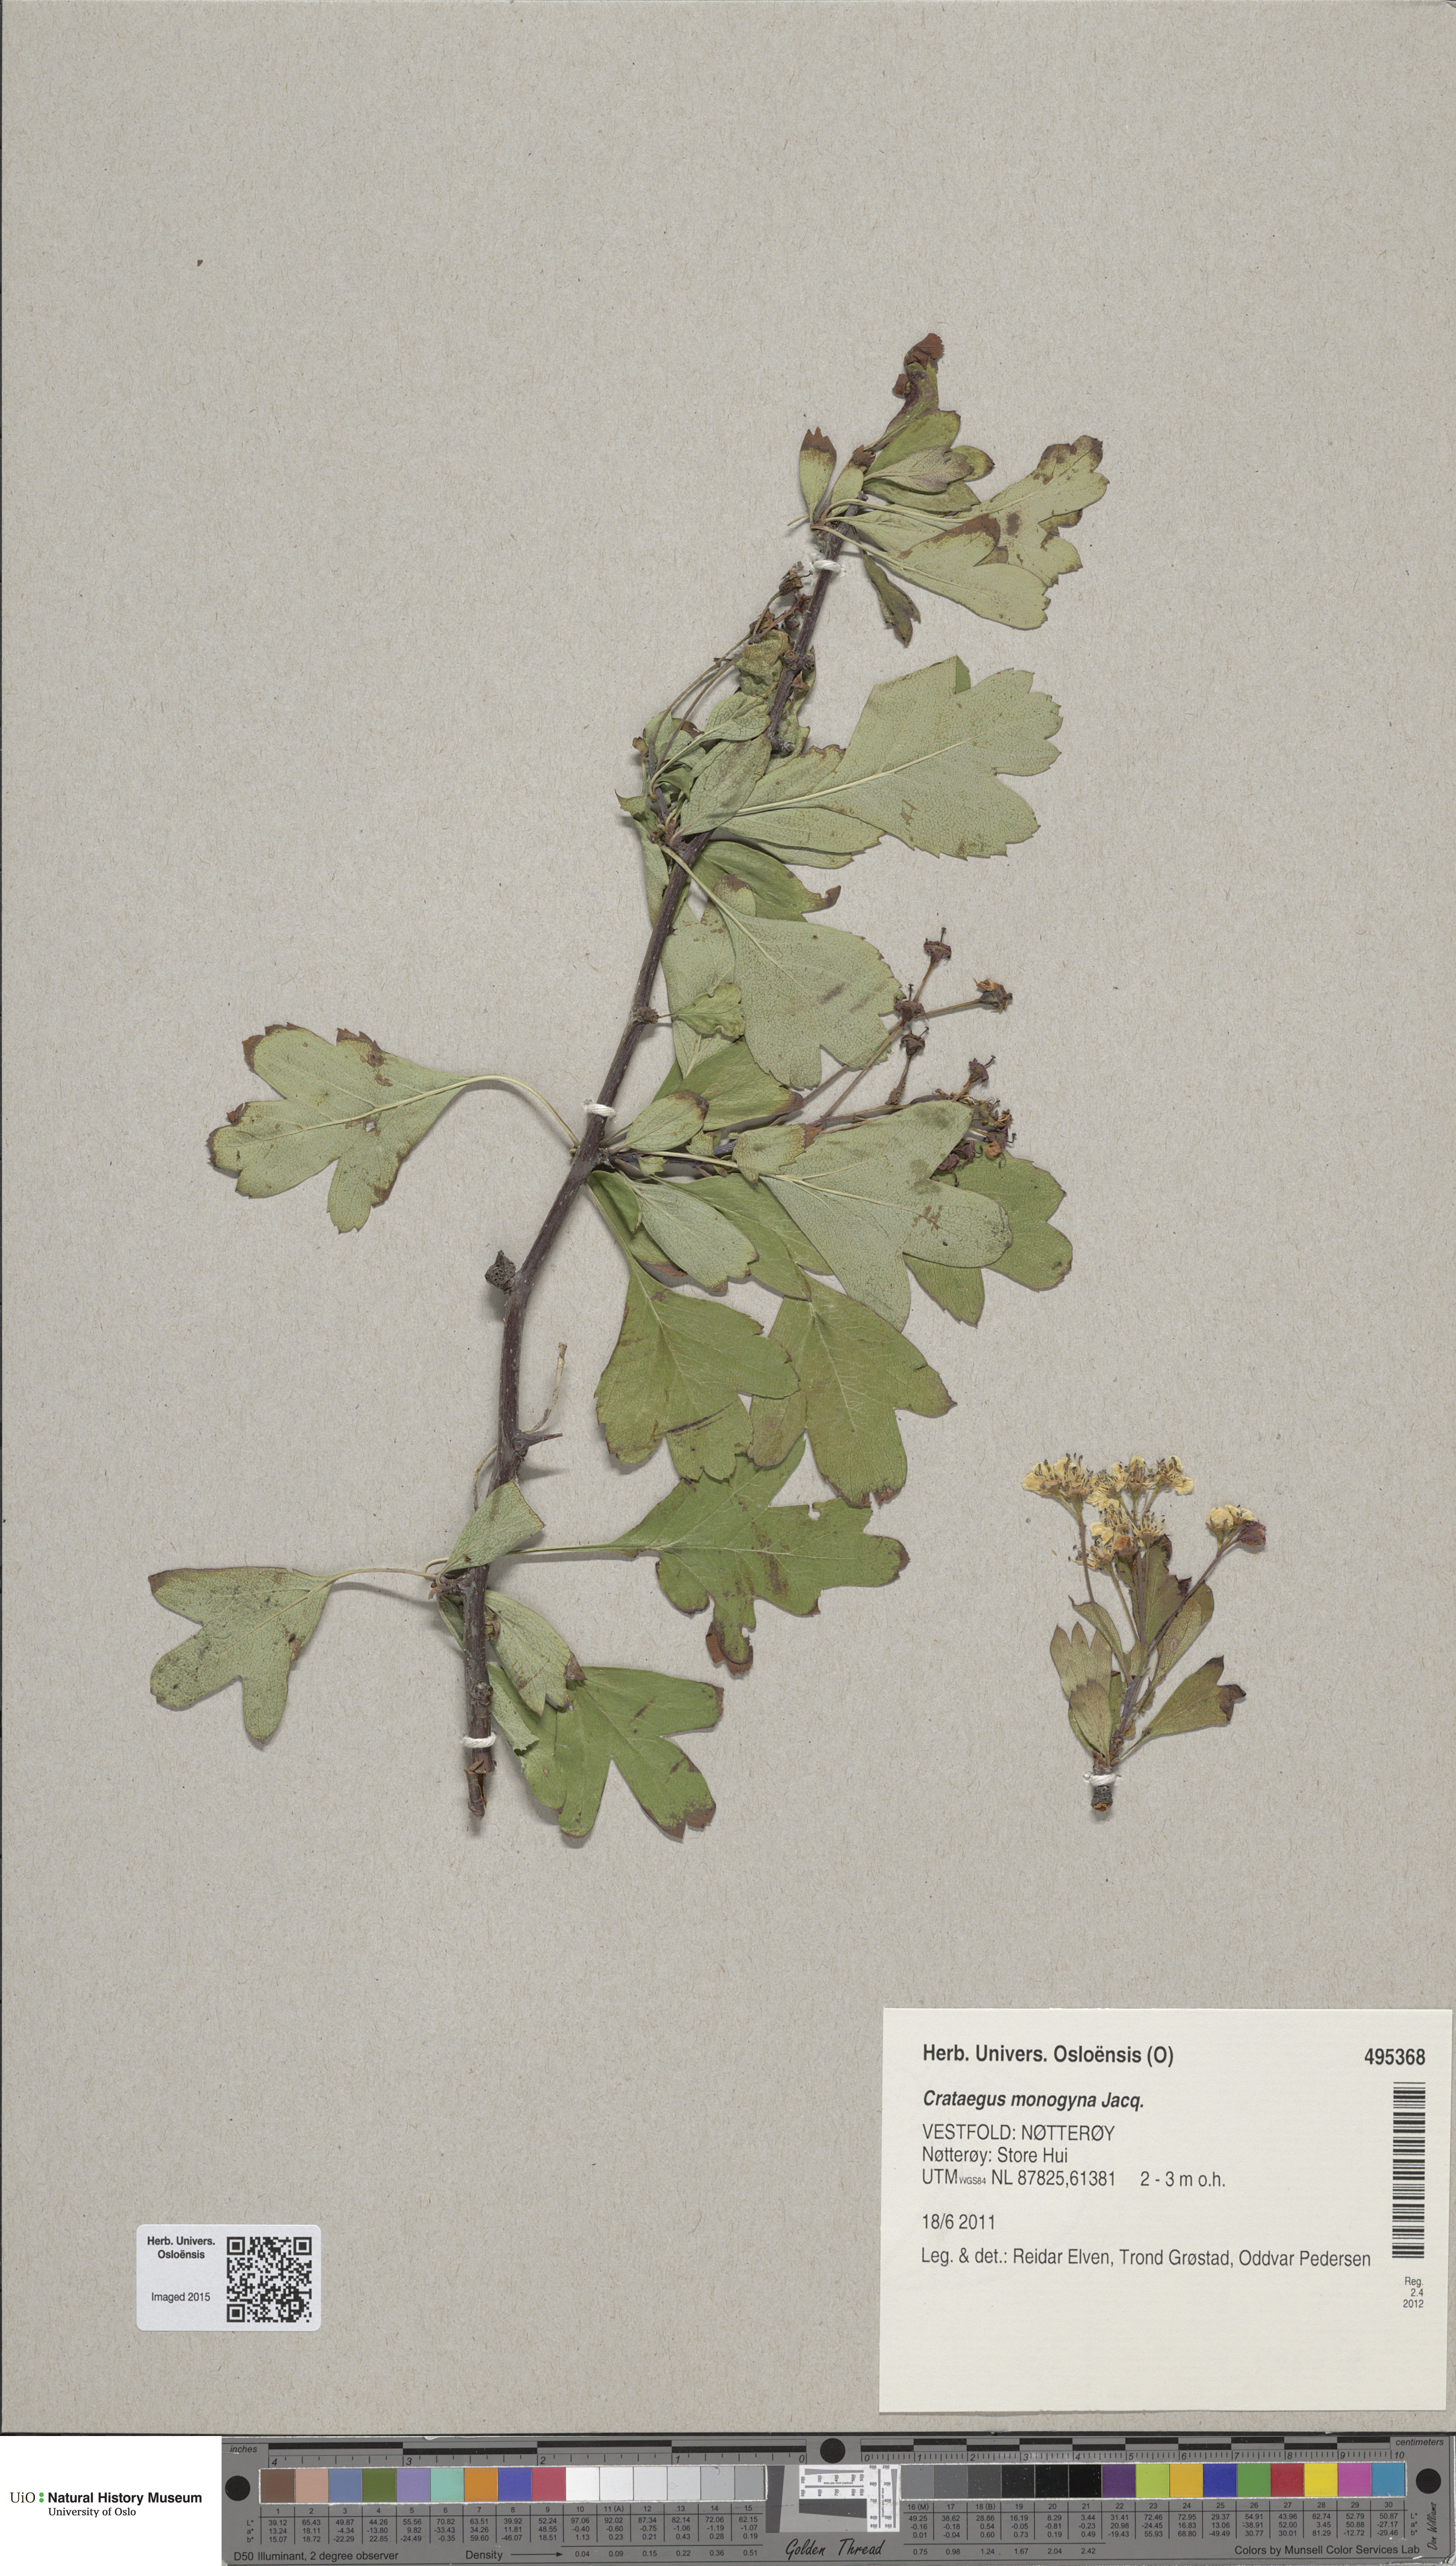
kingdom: Plantae
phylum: Tracheophyta
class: Magnoliopsida
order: Rosales
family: Rosaceae
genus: Crataegus
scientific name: Crataegus monogyna
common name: Hawthorn
